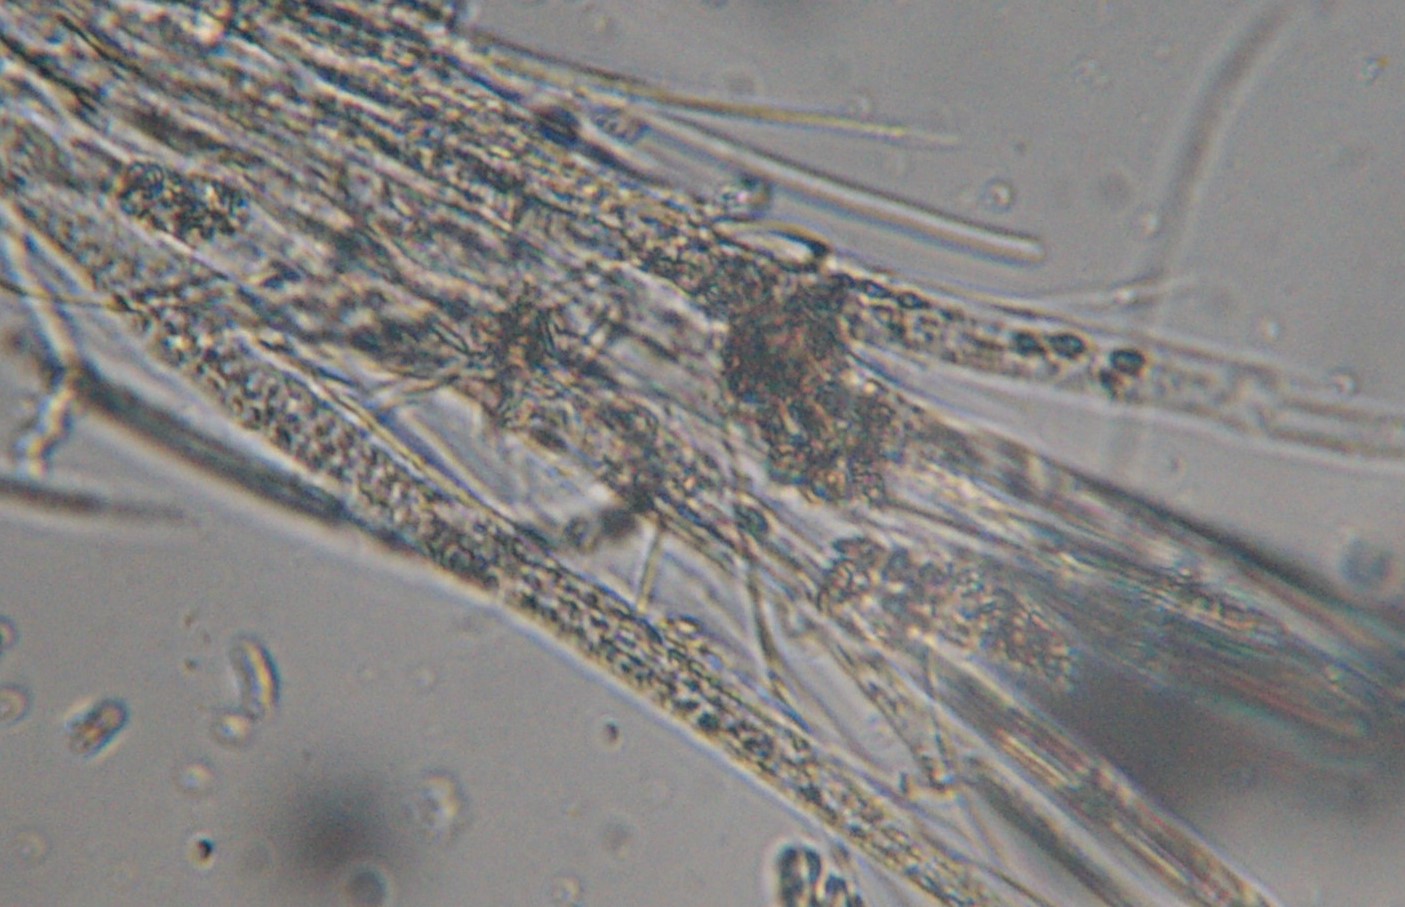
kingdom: Fungi
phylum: Ascomycota
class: Lecanoromycetes
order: Ostropales
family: Stictidaceae
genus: Stictis
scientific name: Stictis stellata
